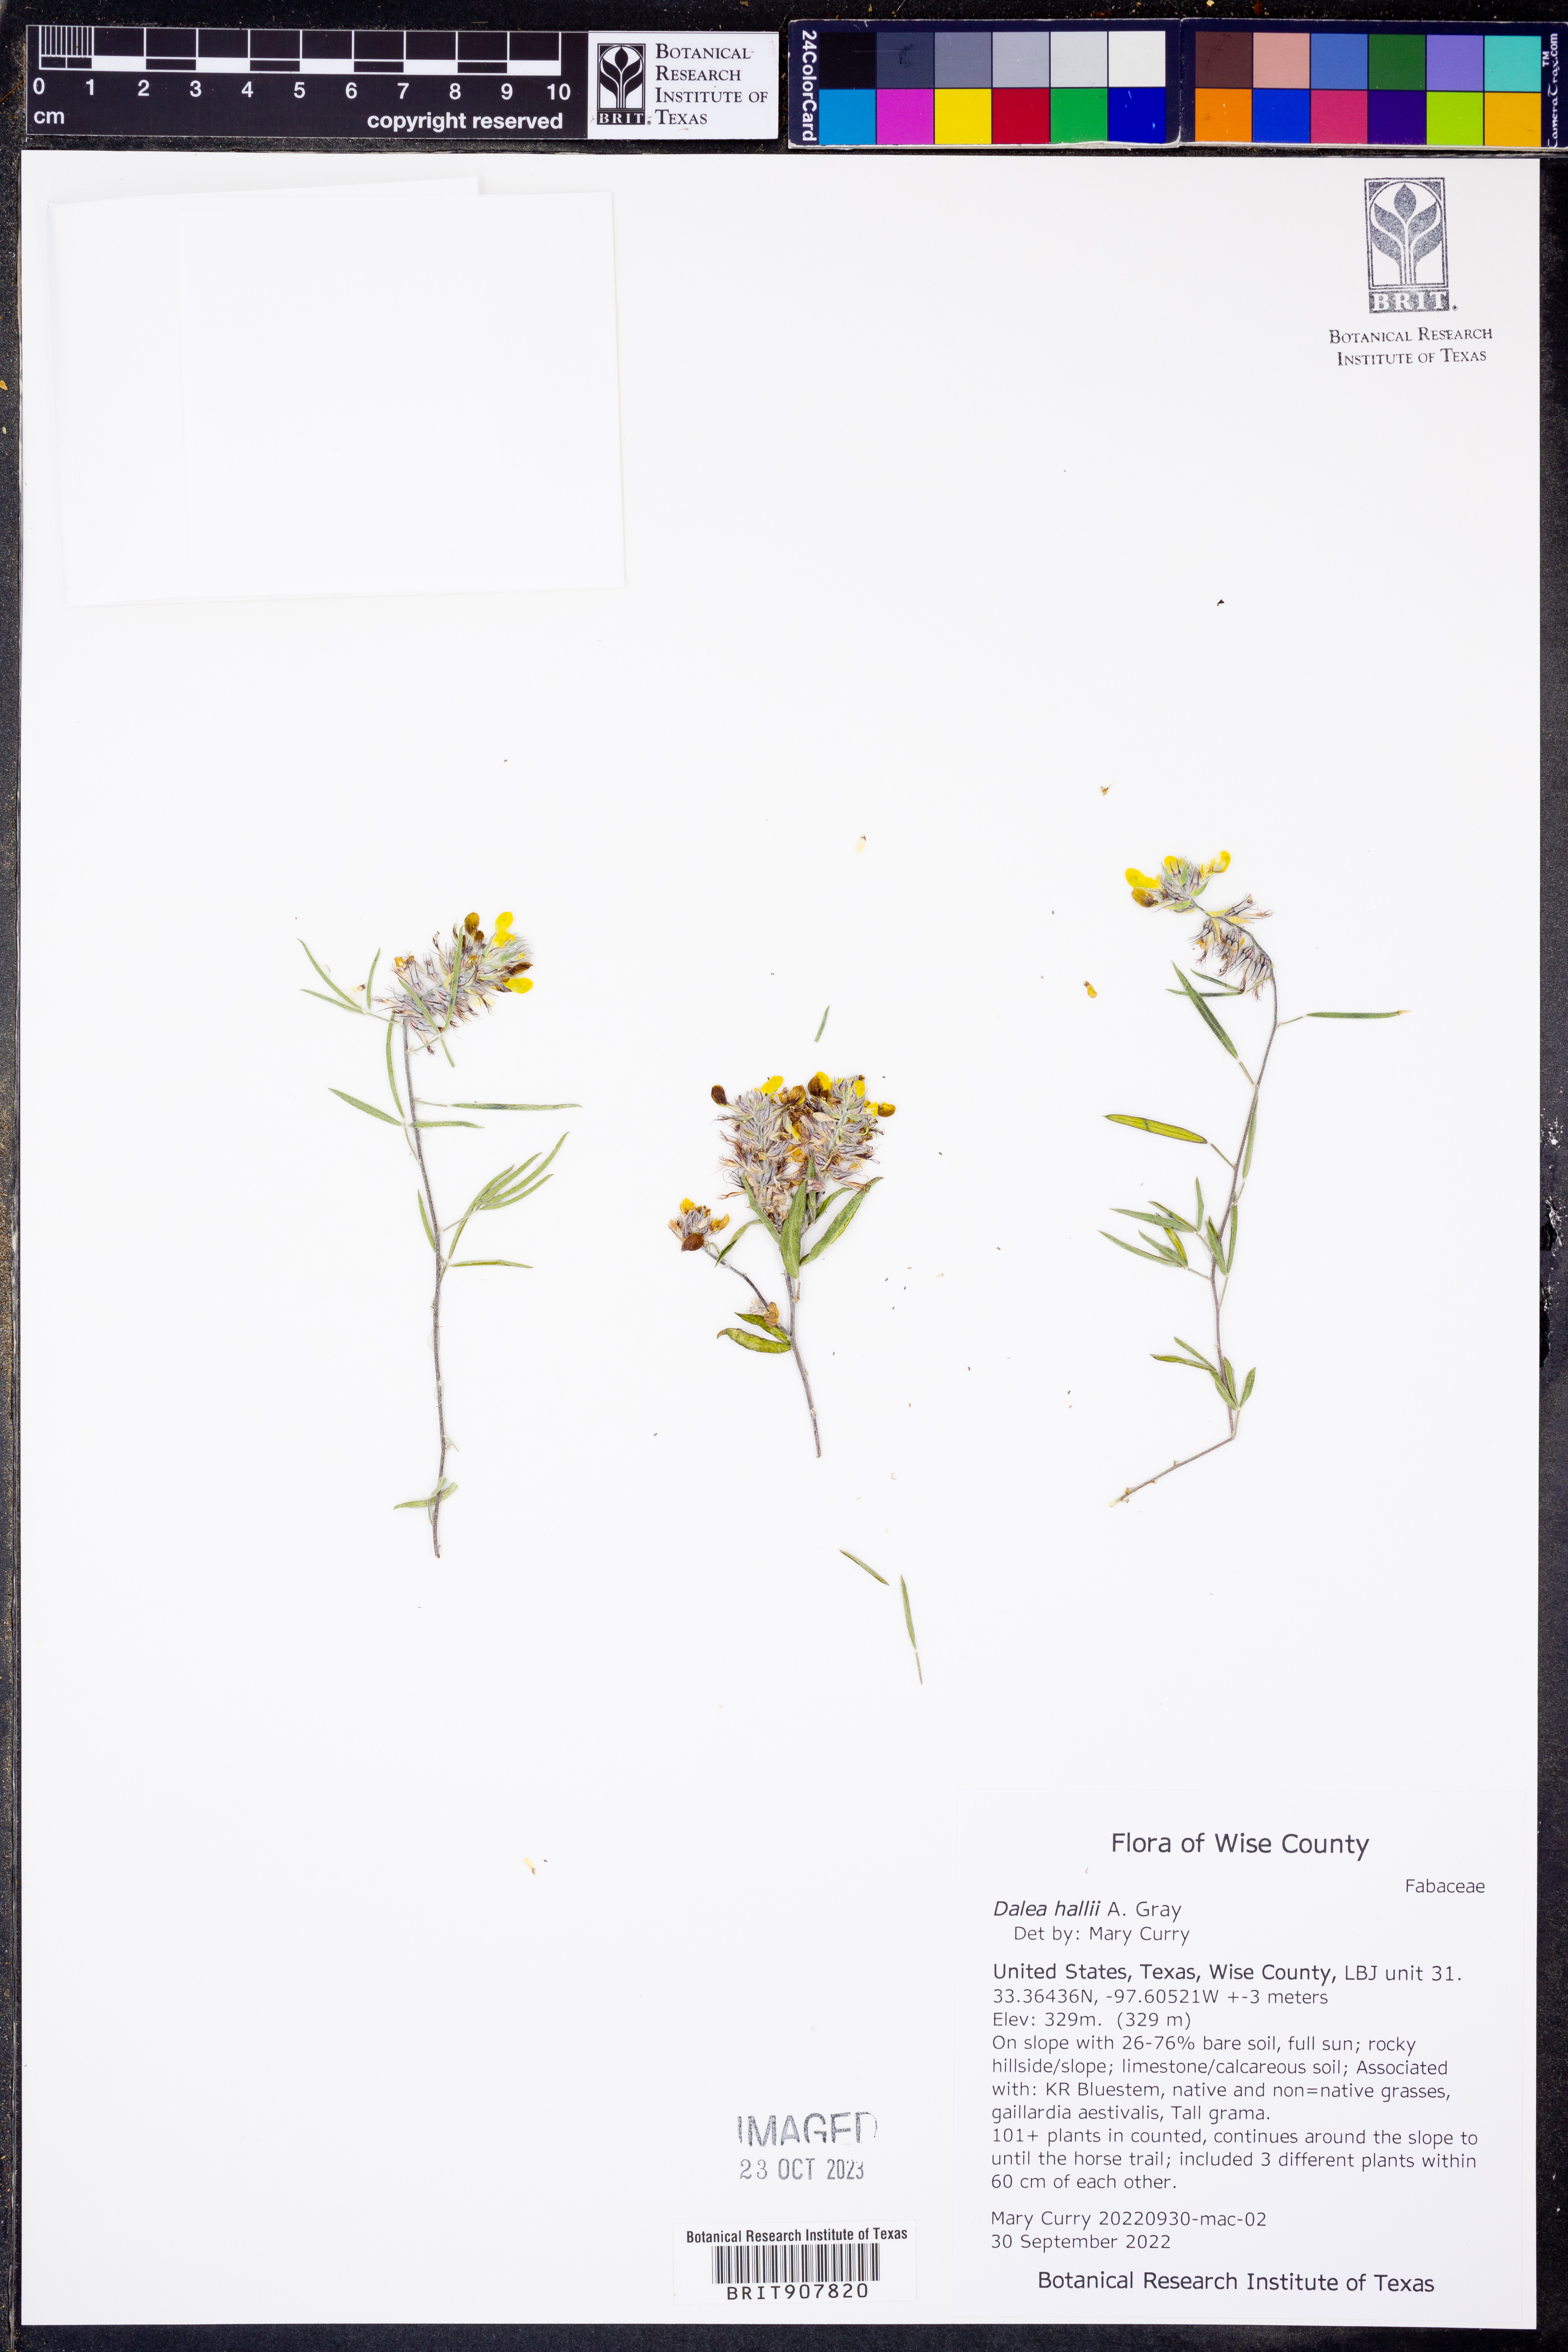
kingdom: Plantae
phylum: Tracheophyta
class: Magnoliopsida
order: Fabales
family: Fabaceae
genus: Dalea
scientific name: Dalea hallii
